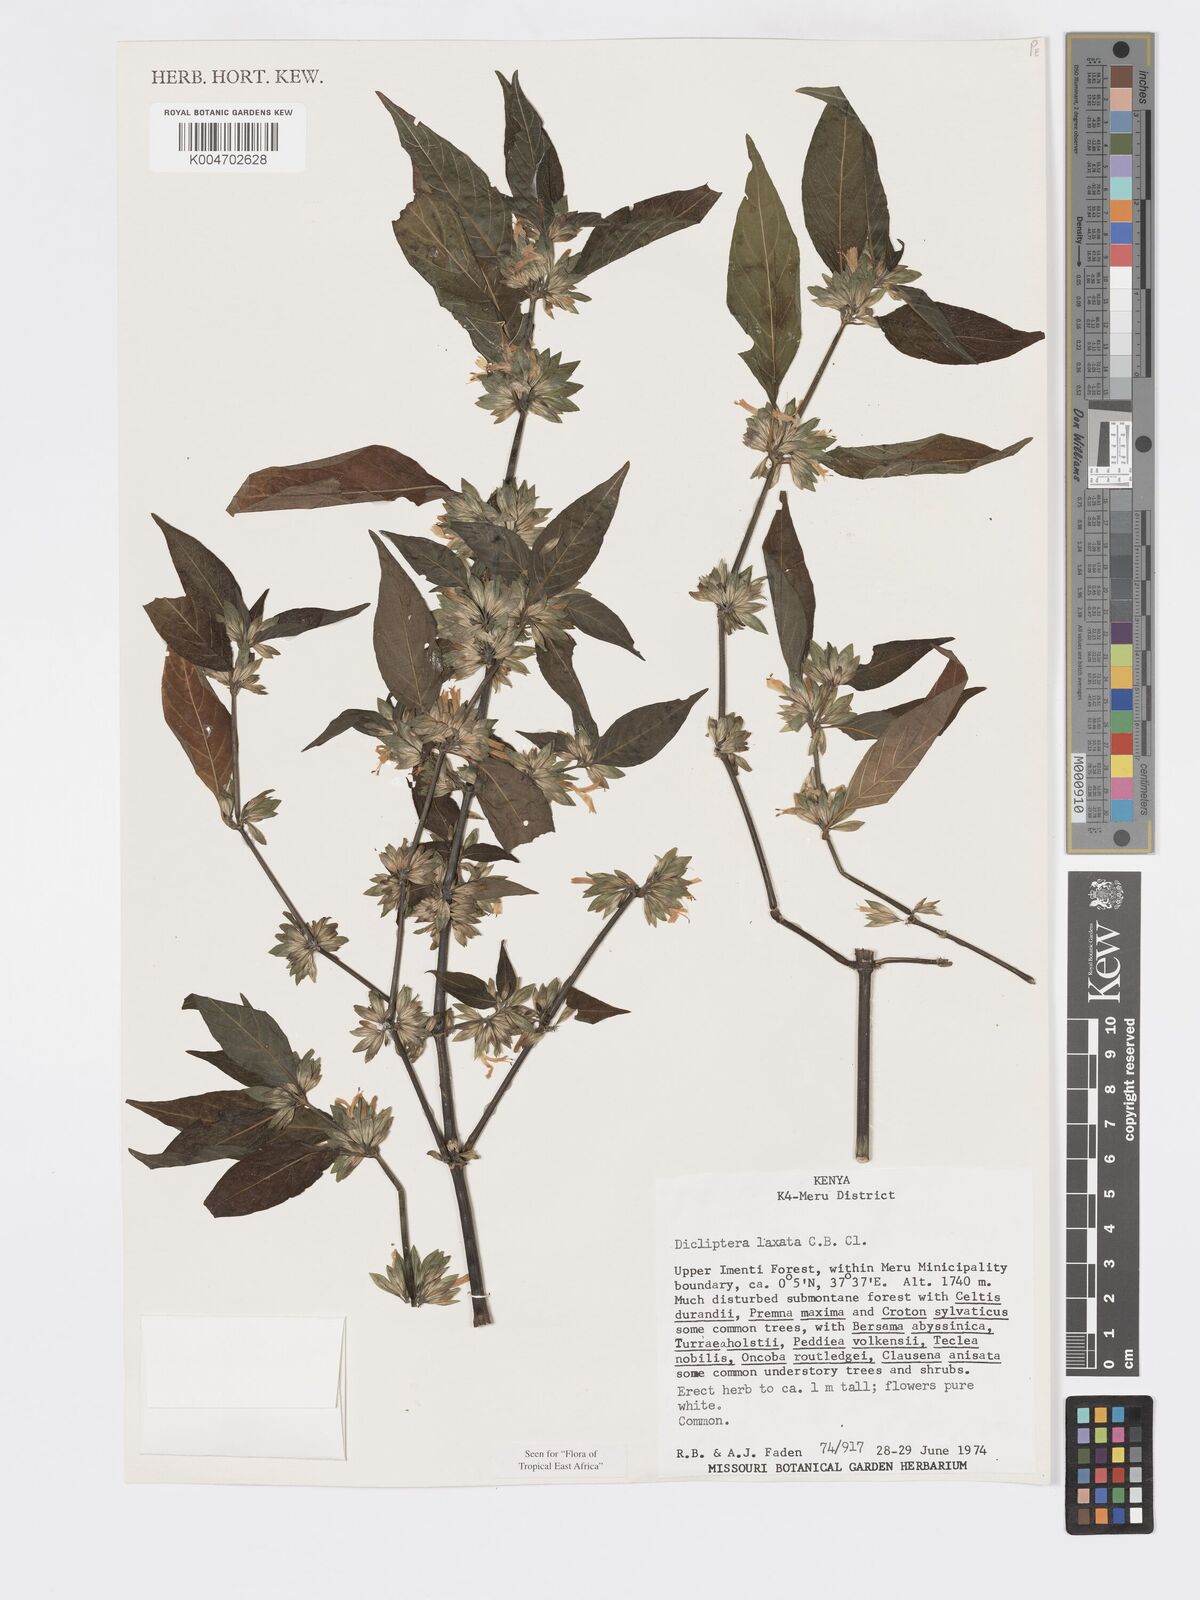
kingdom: Plantae
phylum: Tracheophyta
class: Magnoliopsida
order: Lamiales
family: Acanthaceae
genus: Dicliptera
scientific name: Dicliptera laxata
